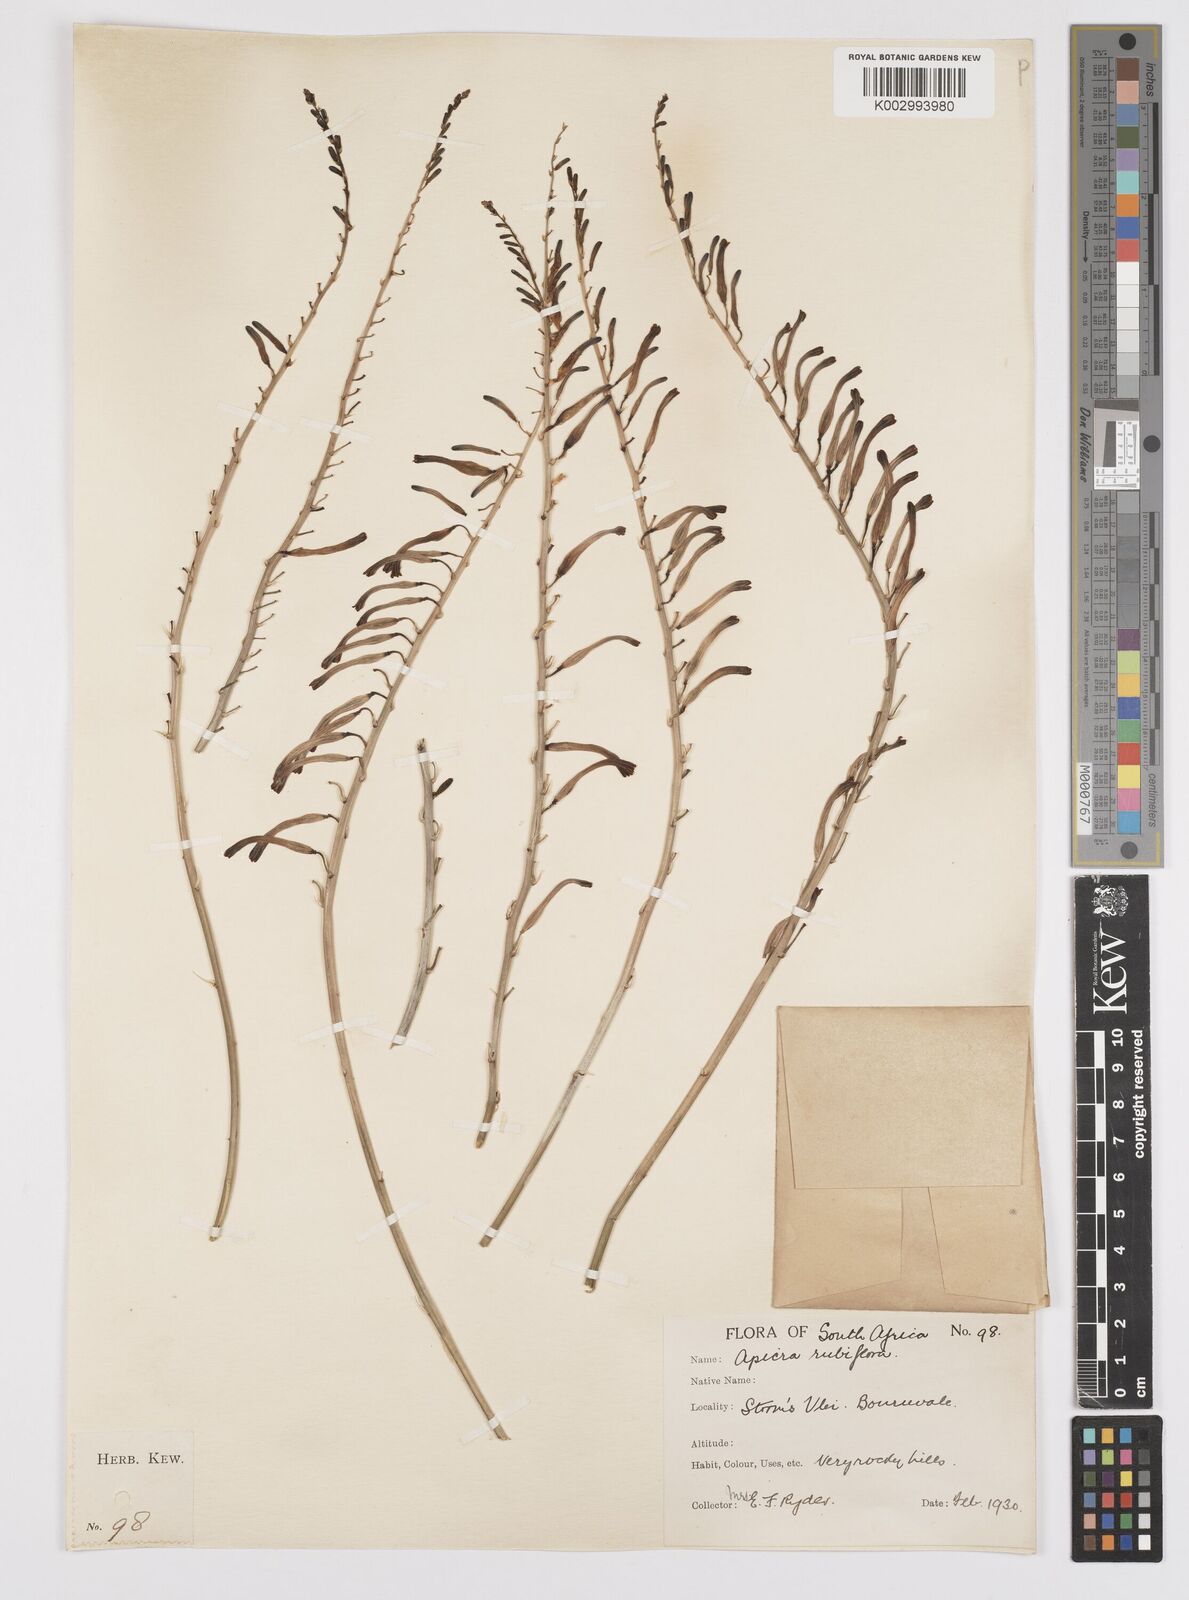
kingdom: Plantae
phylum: Tracheophyta
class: Liliopsida
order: Asparagales
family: Asphodelaceae
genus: Astroloba
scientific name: Astroloba rubriflora
